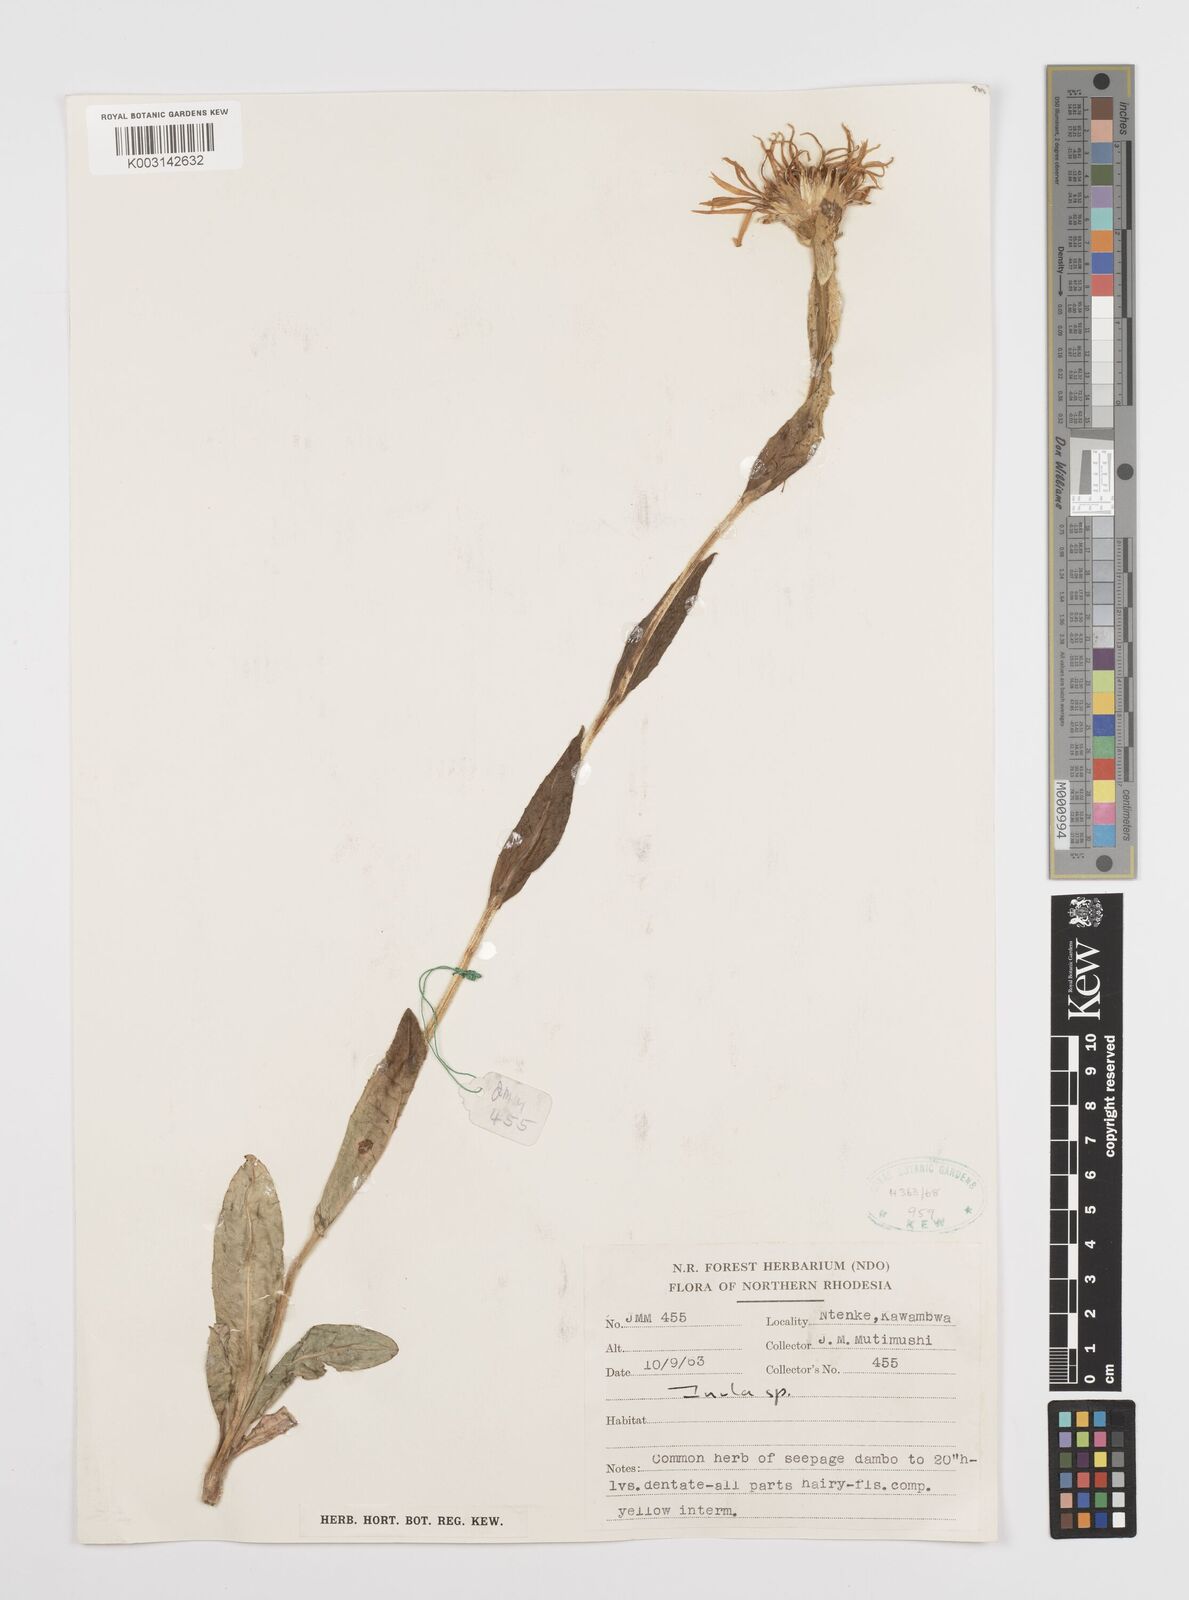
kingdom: Plantae
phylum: Tracheophyta
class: Magnoliopsida
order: Asterales
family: Asteraceae
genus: Inula
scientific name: Inula paludosa
